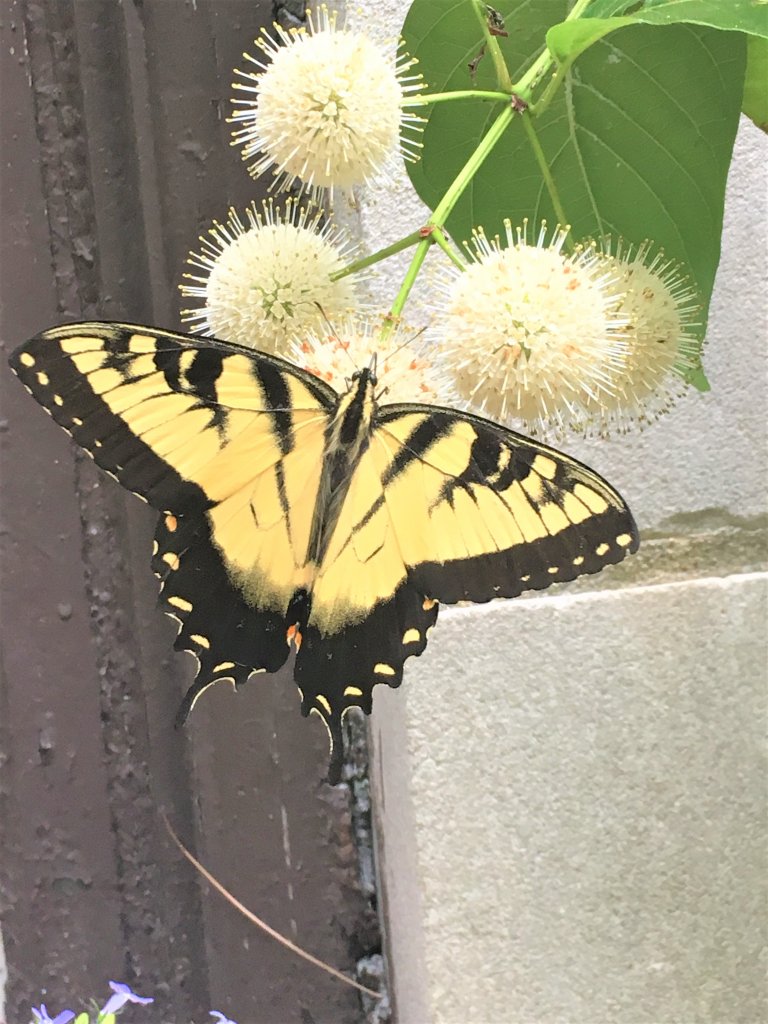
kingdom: Animalia
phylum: Arthropoda
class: Insecta
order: Lepidoptera
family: Papilionidae
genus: Pterourus
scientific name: Pterourus glaucus
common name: Eastern Tiger Swallowtail
